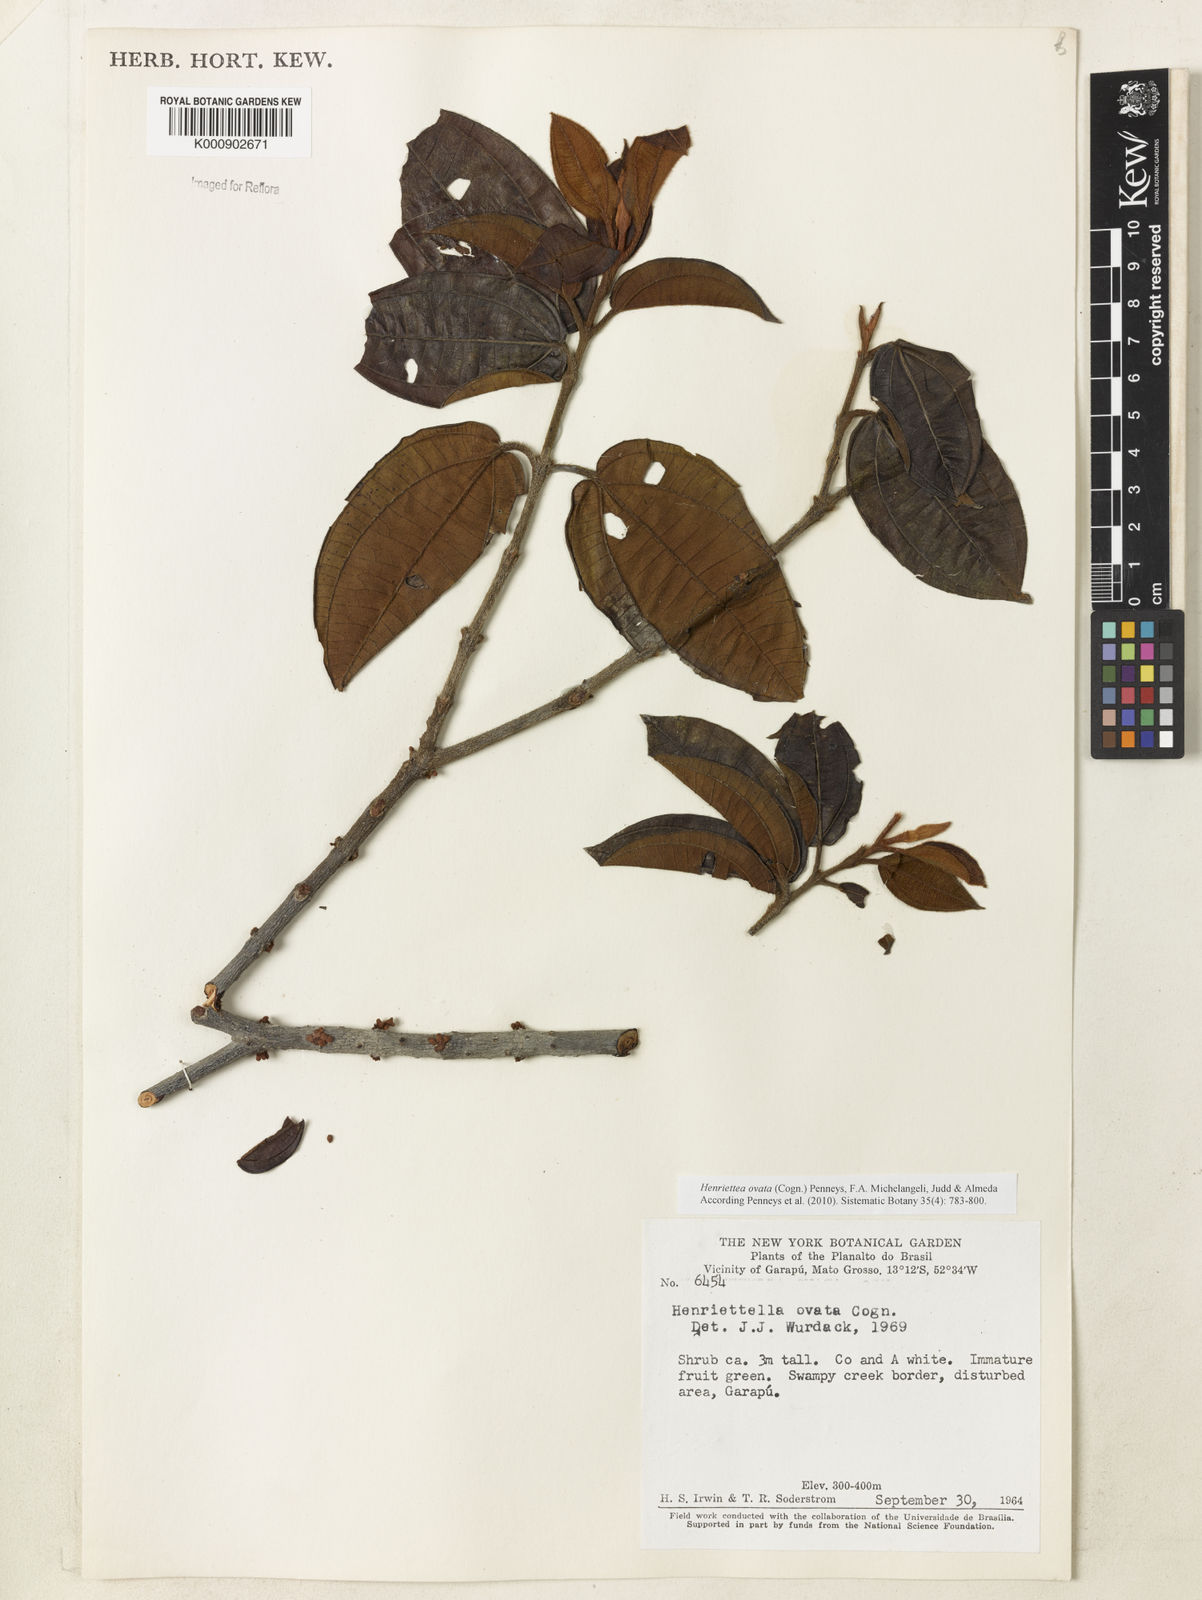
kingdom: Plantae
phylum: Tracheophyta
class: Magnoliopsida
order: Myrtales
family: Melastomataceae
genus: Henriettea
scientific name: Henriettea ovata
